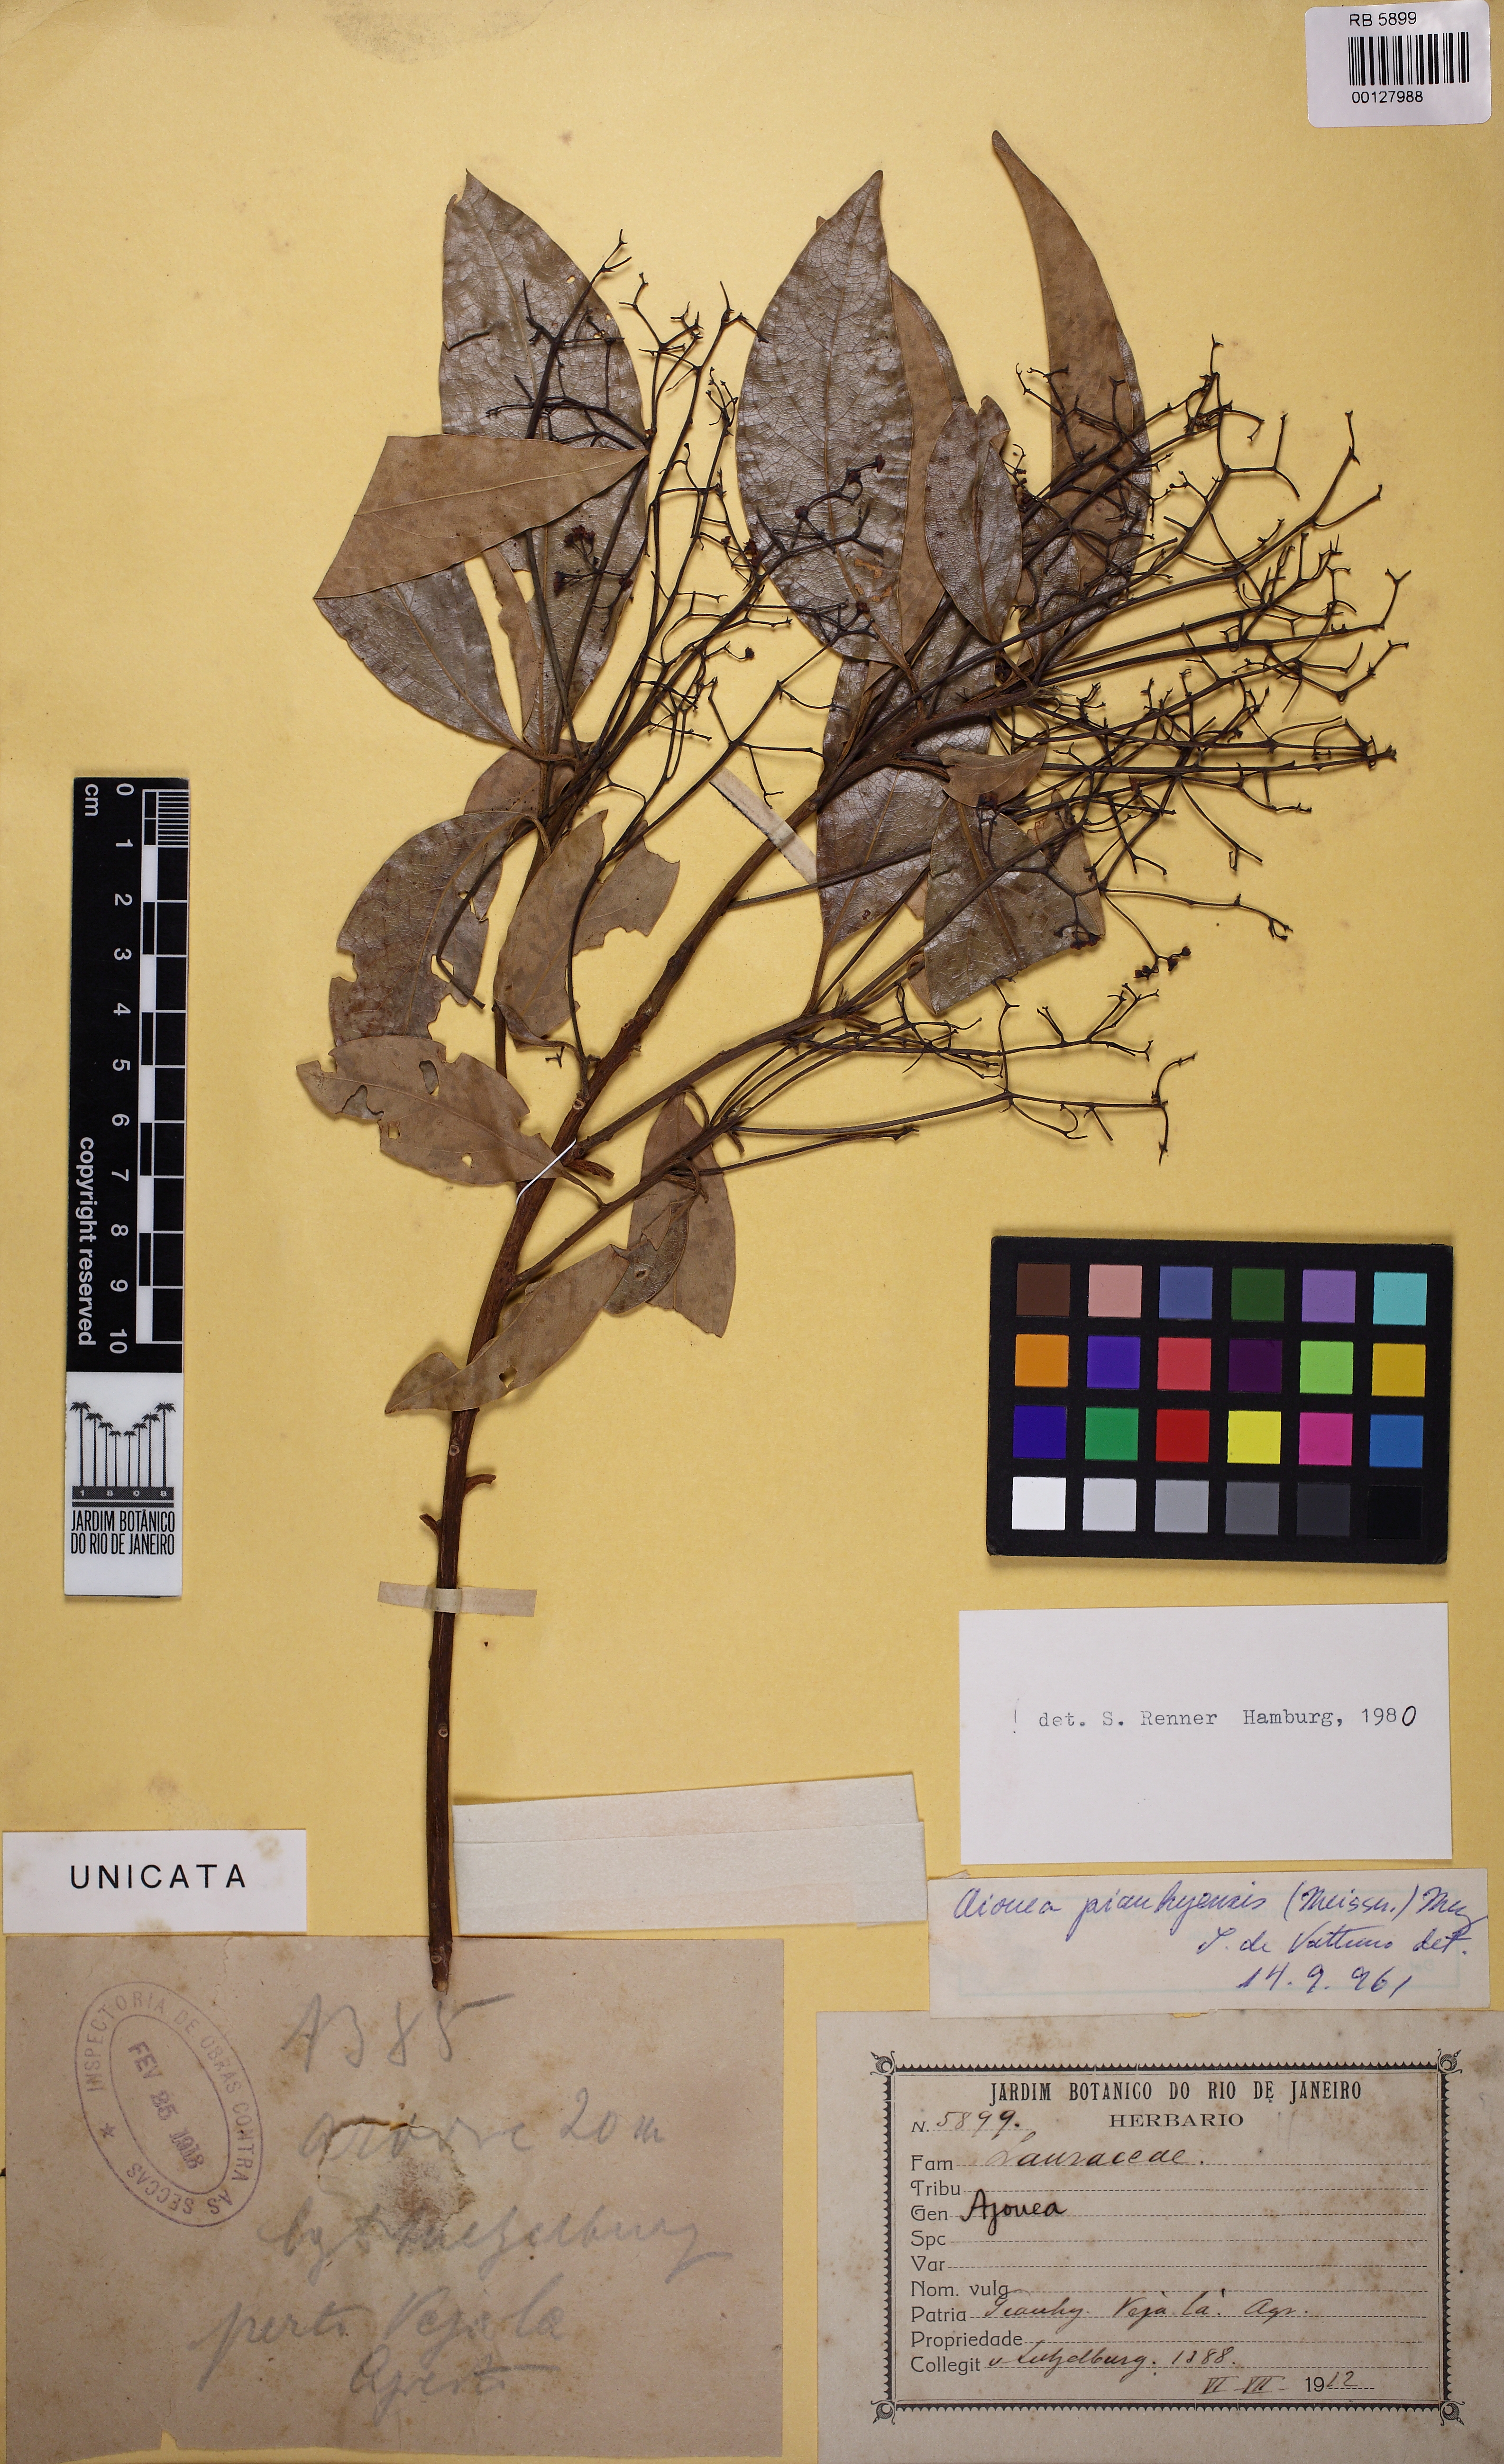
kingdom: Plantae
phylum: Tracheophyta
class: Magnoliopsida
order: Laurales
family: Lauraceae
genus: Aiouea
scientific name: Aiouea piauhyensis
